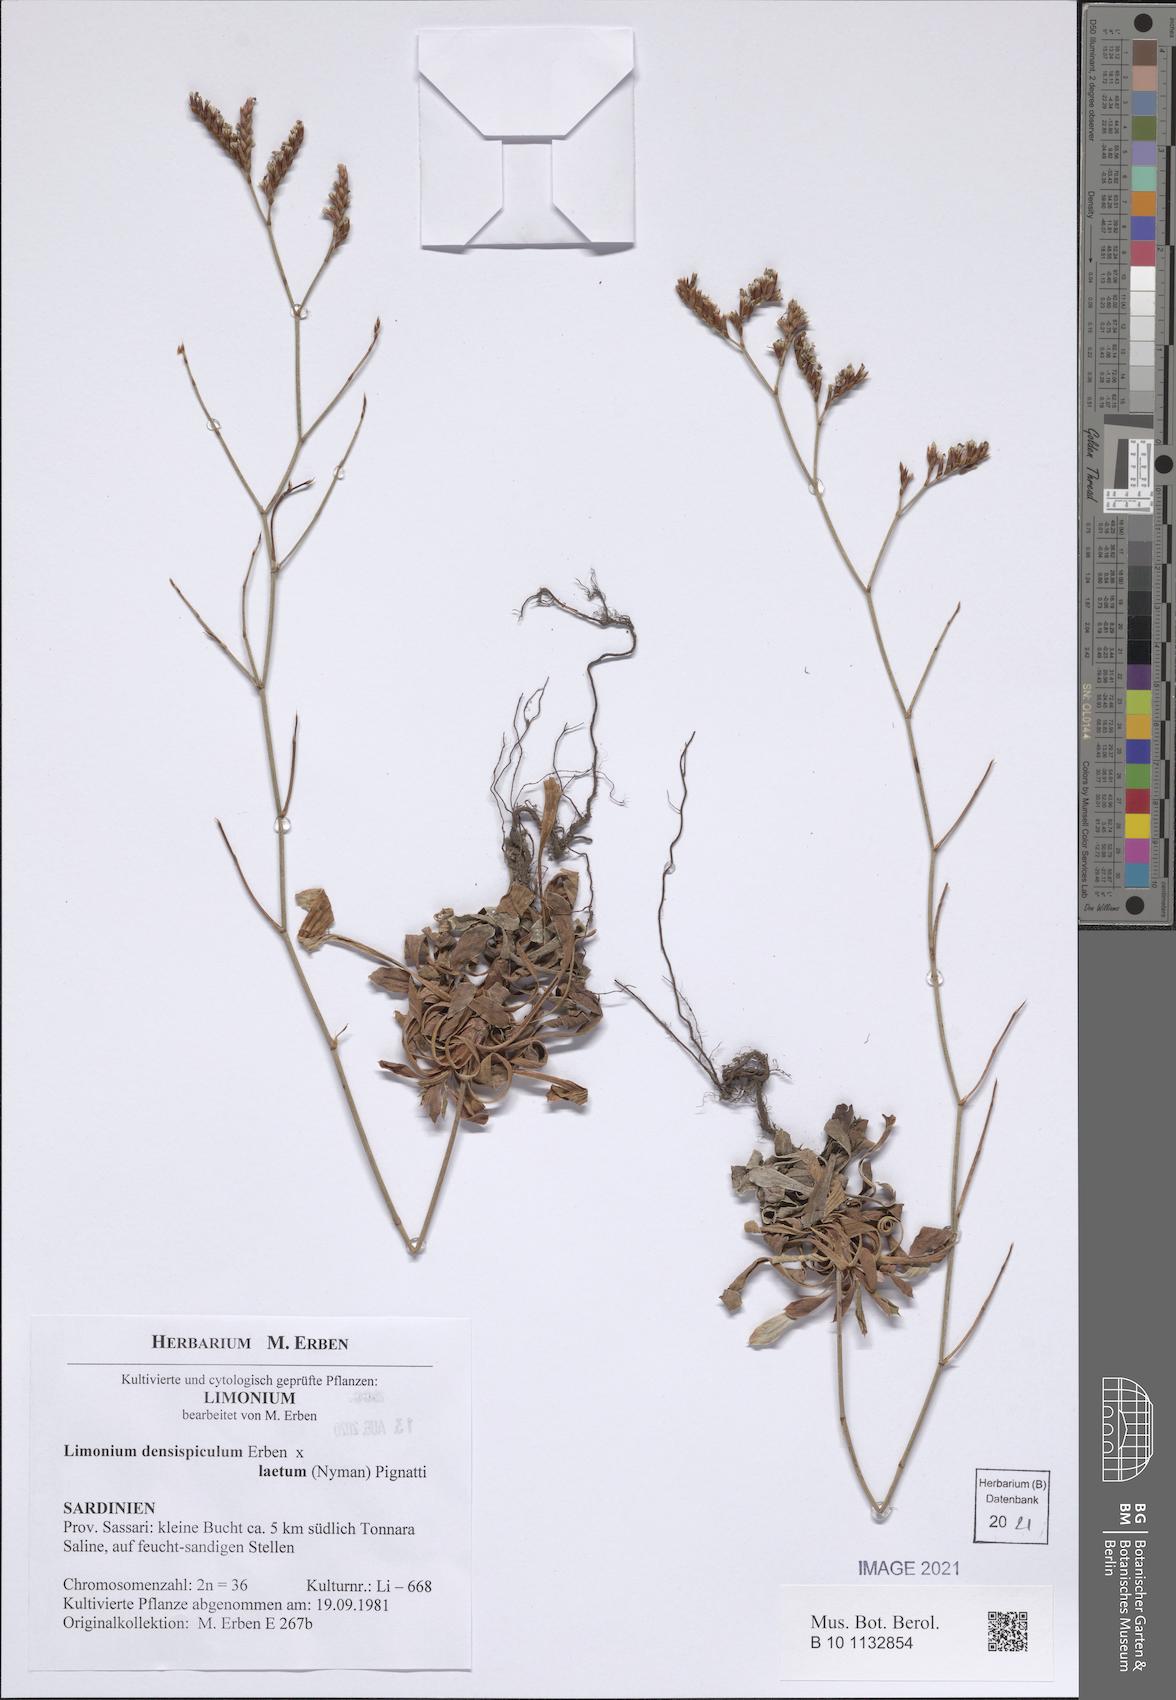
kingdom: Plantae
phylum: Tracheophyta
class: Magnoliopsida
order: Caryophyllales
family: Plumbaginaceae
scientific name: Plumbaginaceae
